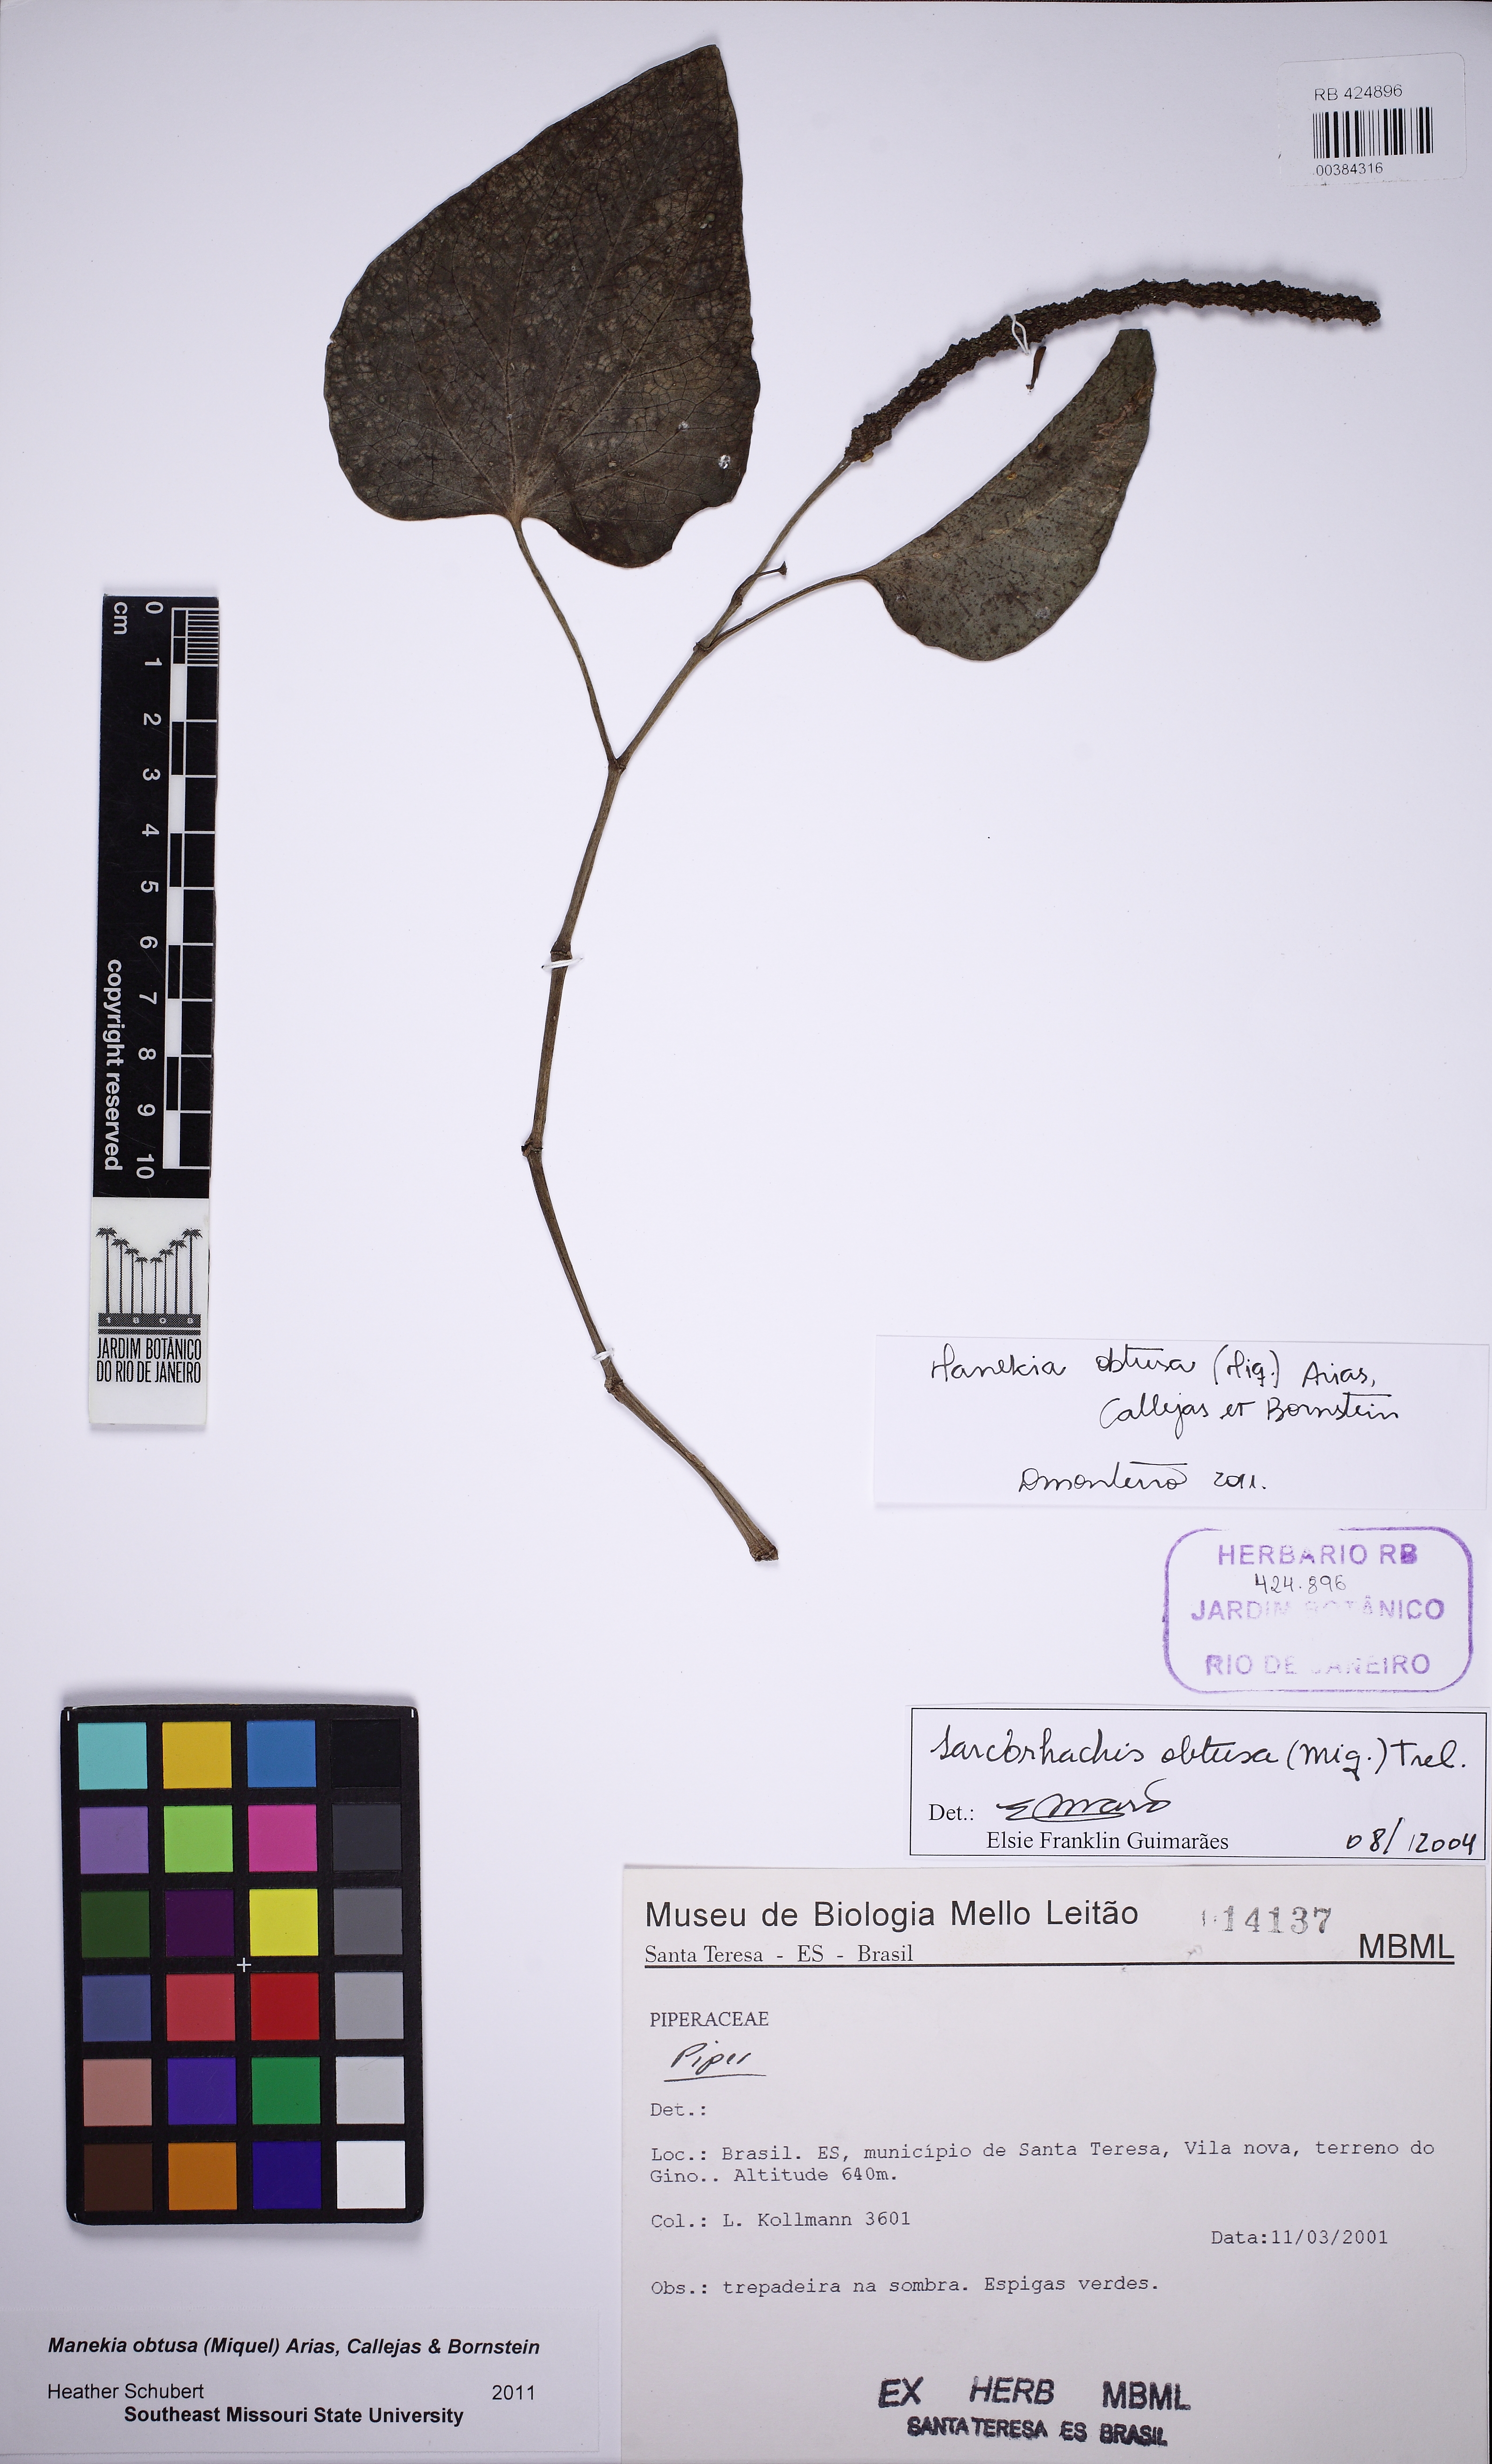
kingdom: Plantae
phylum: Tracheophyta
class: Magnoliopsida
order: Piperales
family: Piperaceae
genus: Manekia
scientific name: Manekia obtusa
